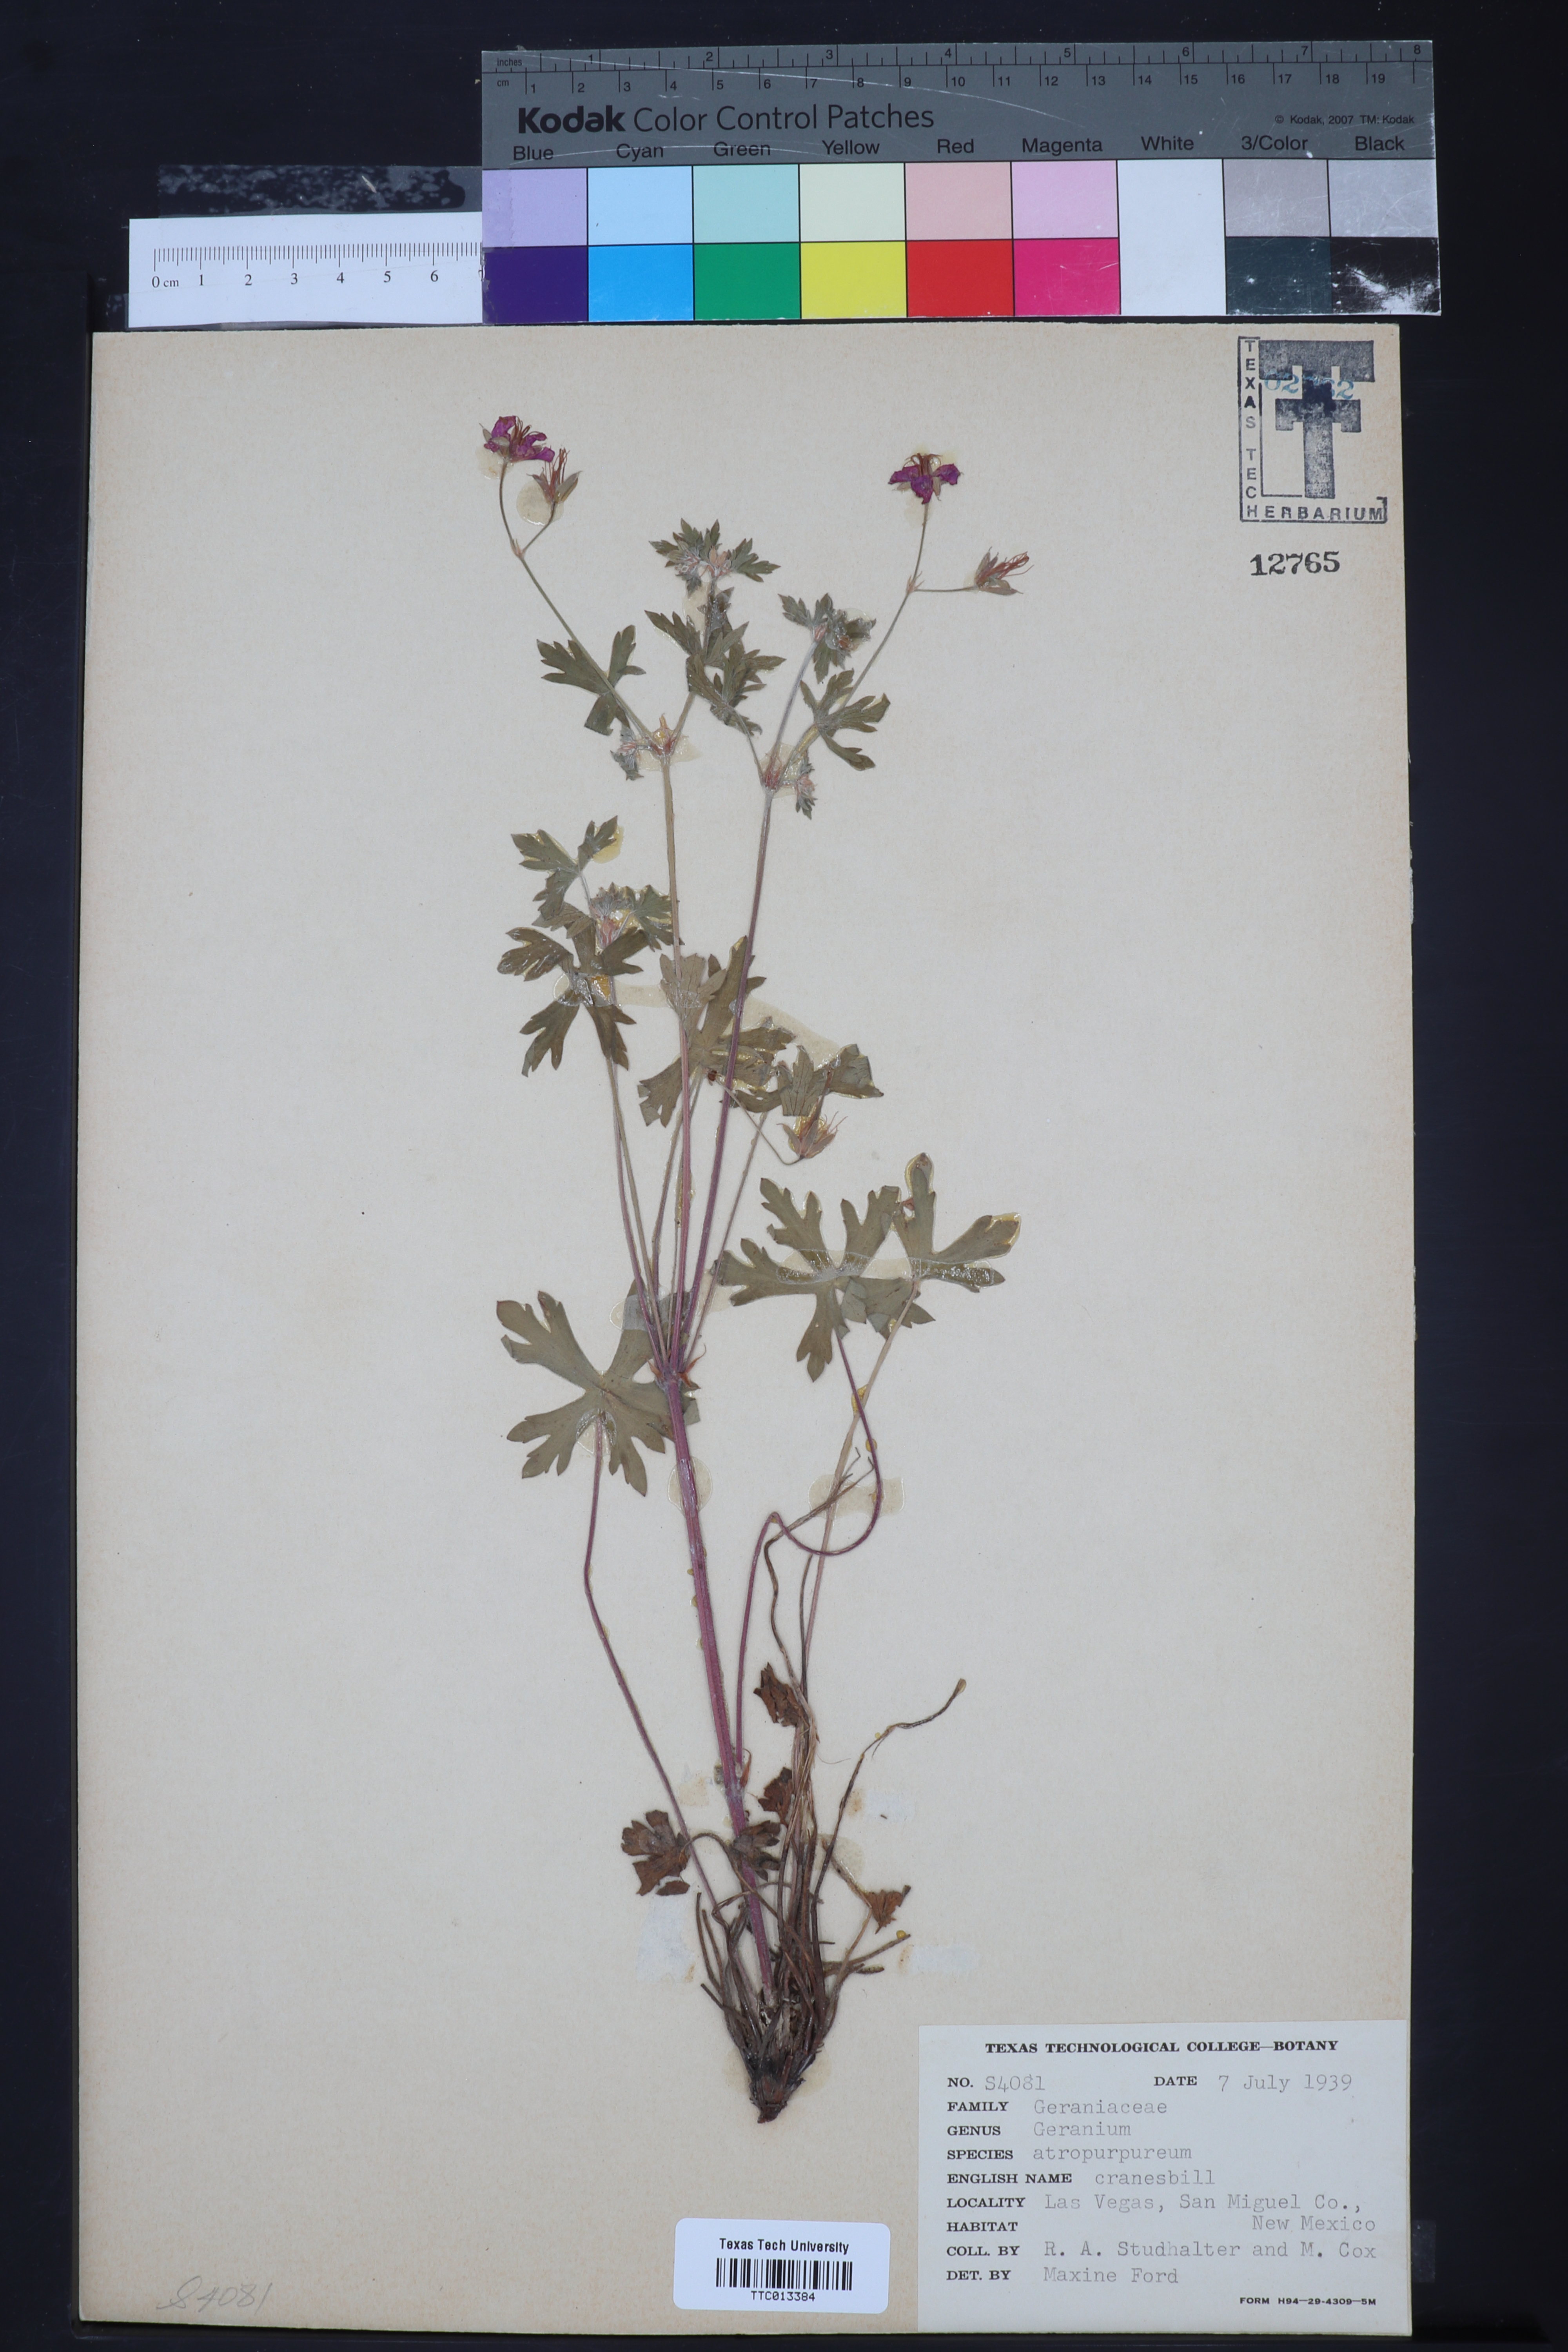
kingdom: Plantae
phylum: Tracheophyta
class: Magnoliopsida
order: Geraniales
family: Geraniaceae
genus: Geranium
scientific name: Geranium caespitosum
